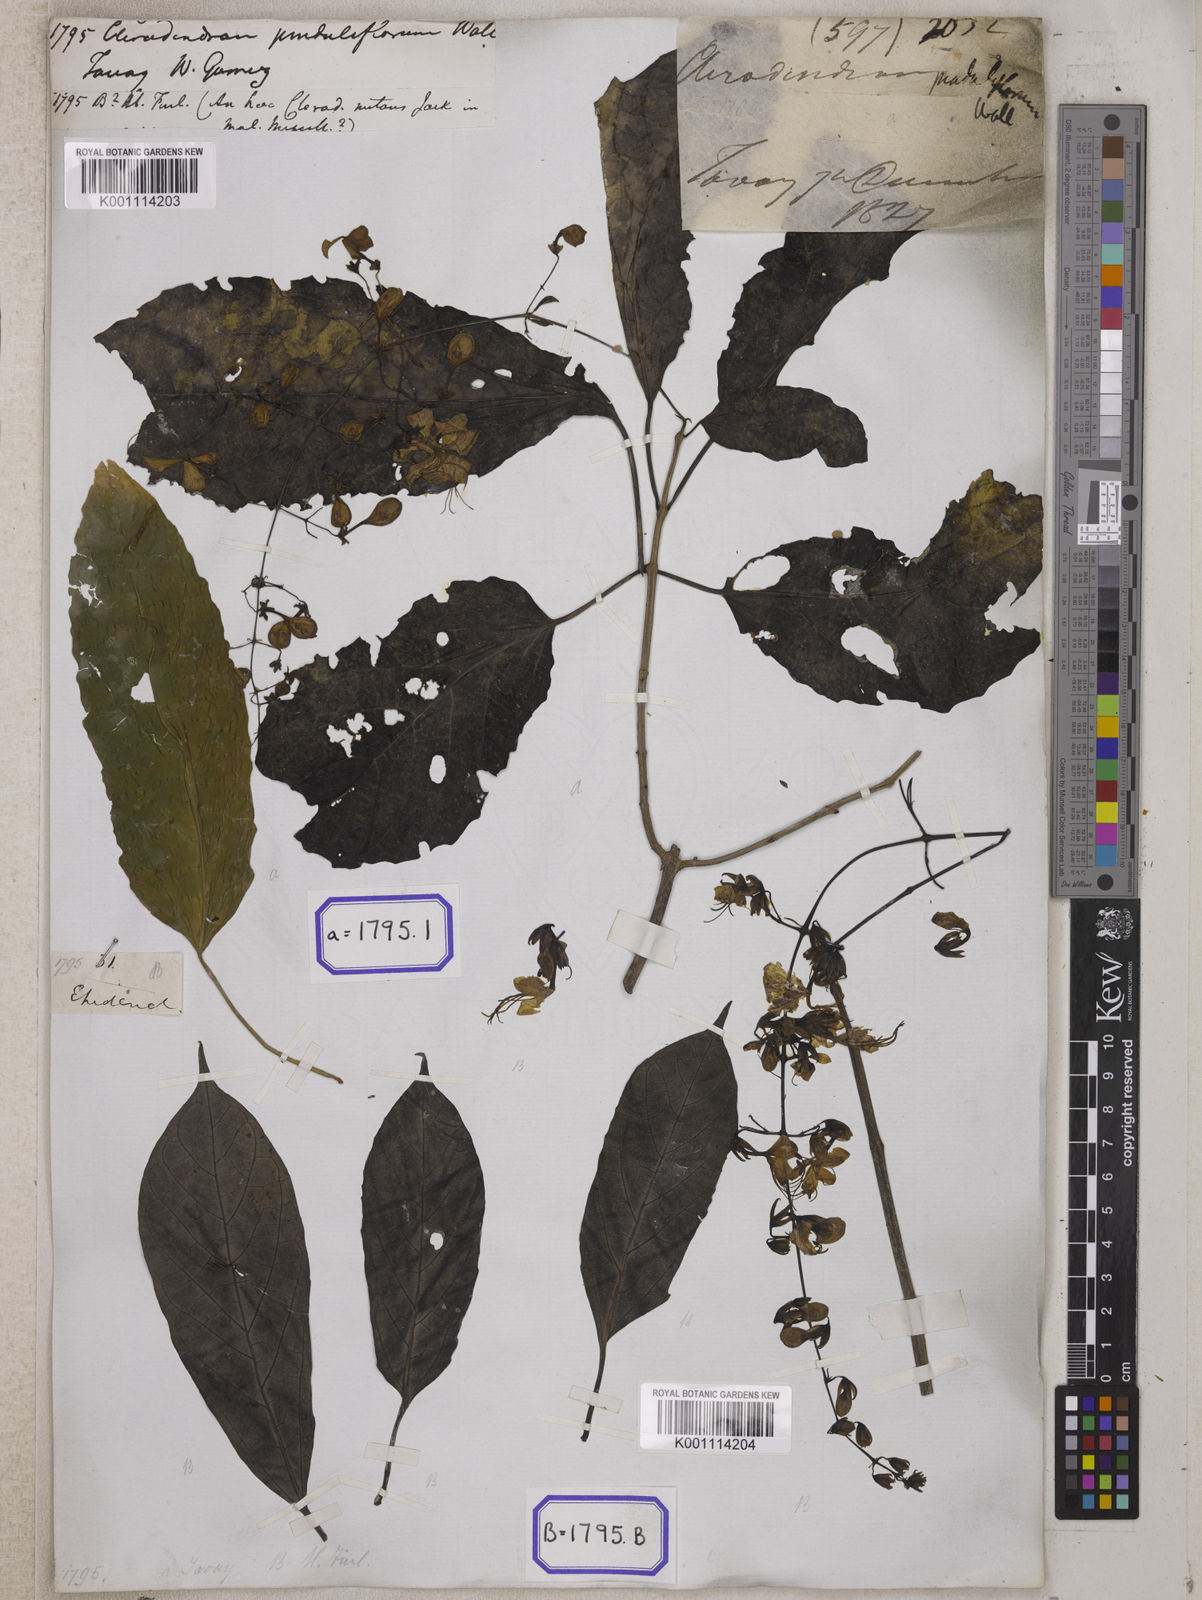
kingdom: Plantae
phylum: Tracheophyta
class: Magnoliopsida
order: Lamiales
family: Lamiaceae
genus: Clerodendrum
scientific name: Clerodendrum
